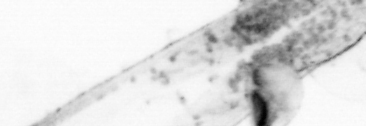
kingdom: Animalia
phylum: Chaetognatha
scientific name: Chaetognatha
